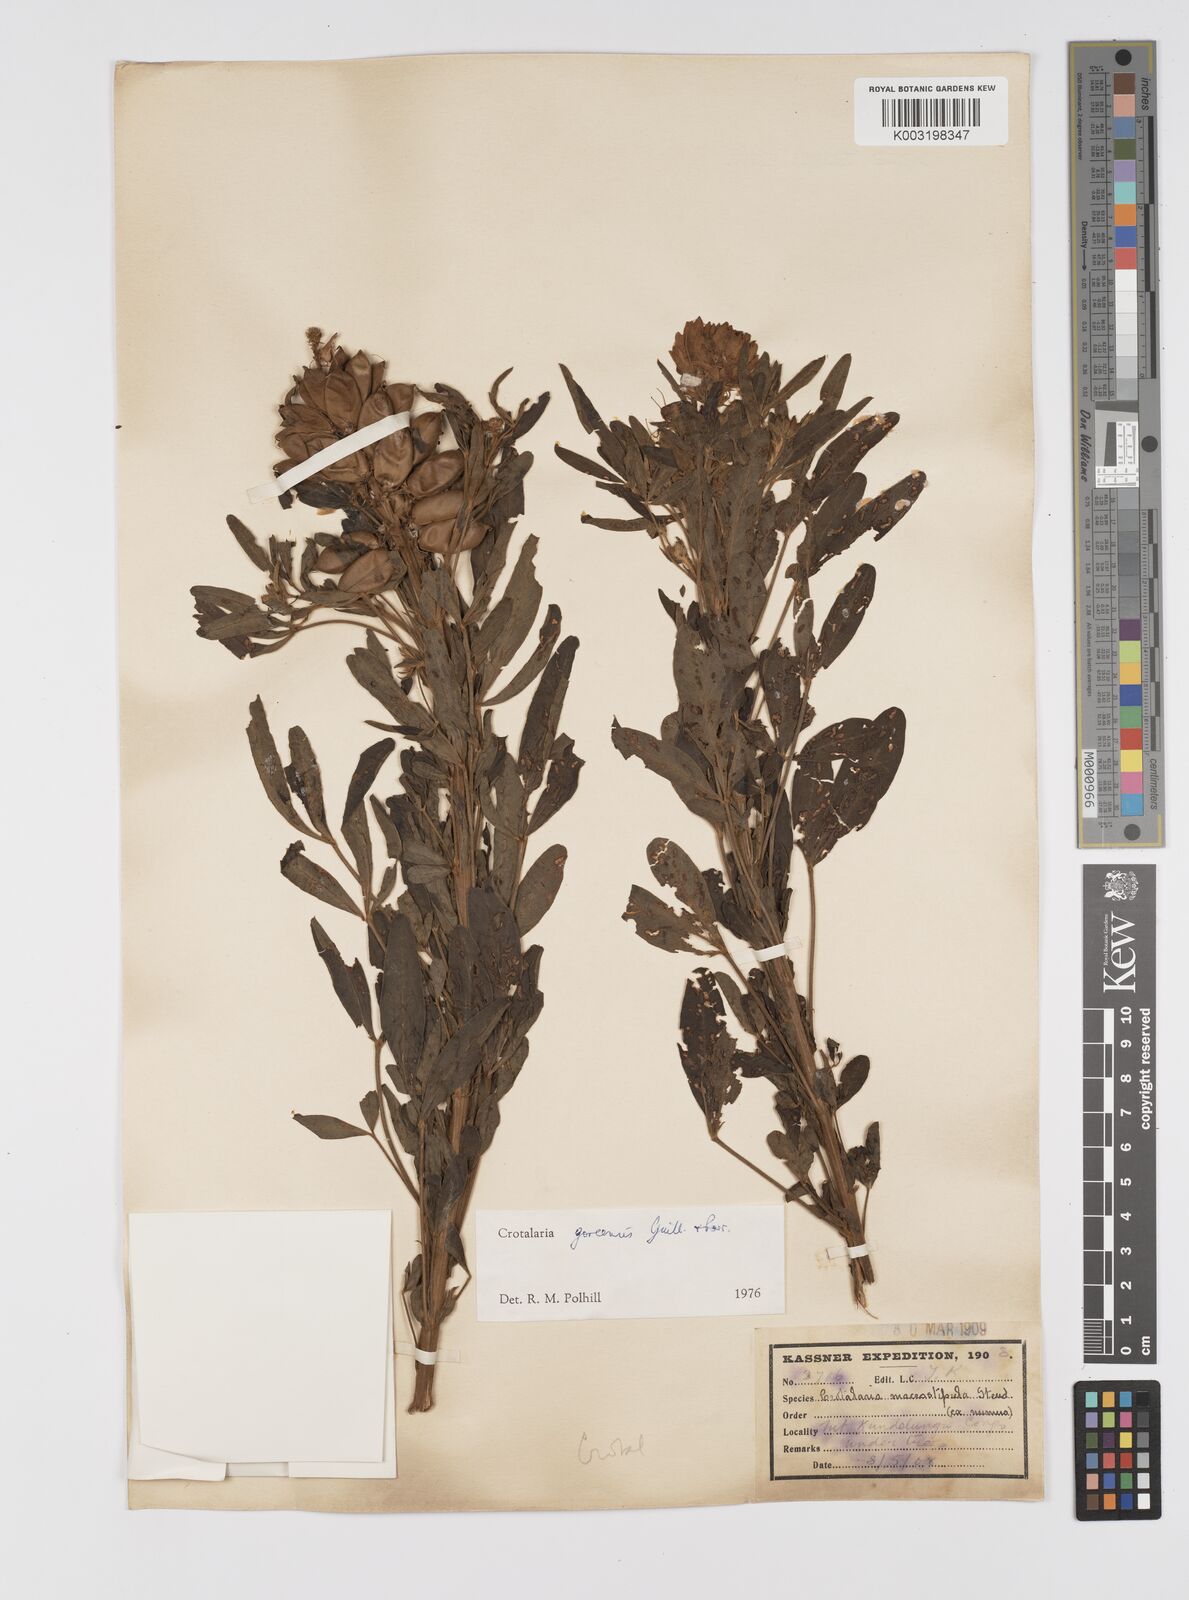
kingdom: Plantae
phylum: Tracheophyta
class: Magnoliopsida
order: Fabales
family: Fabaceae
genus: Crotalaria
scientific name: Crotalaria goreensis
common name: Gambia-pea
